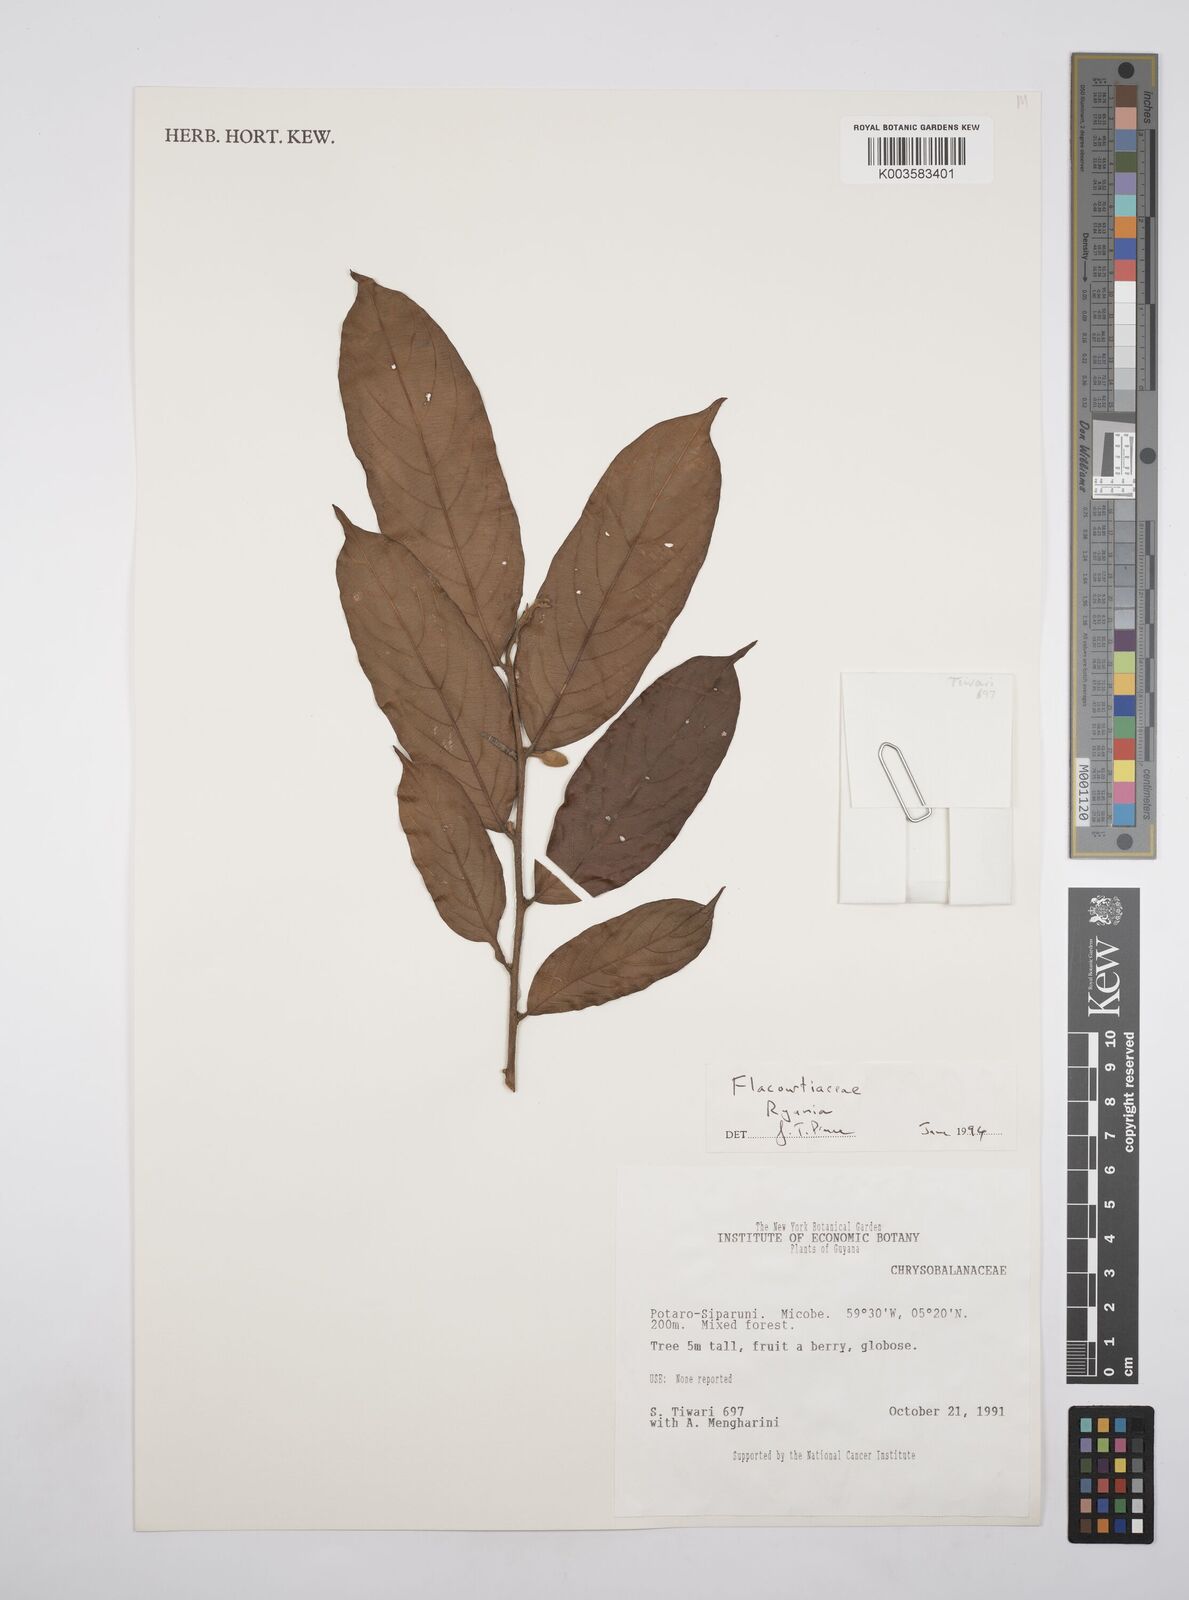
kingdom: Plantae
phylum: Tracheophyta
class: Magnoliopsida
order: Malpighiales
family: Salicaceae
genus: Ryania
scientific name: Ryania
